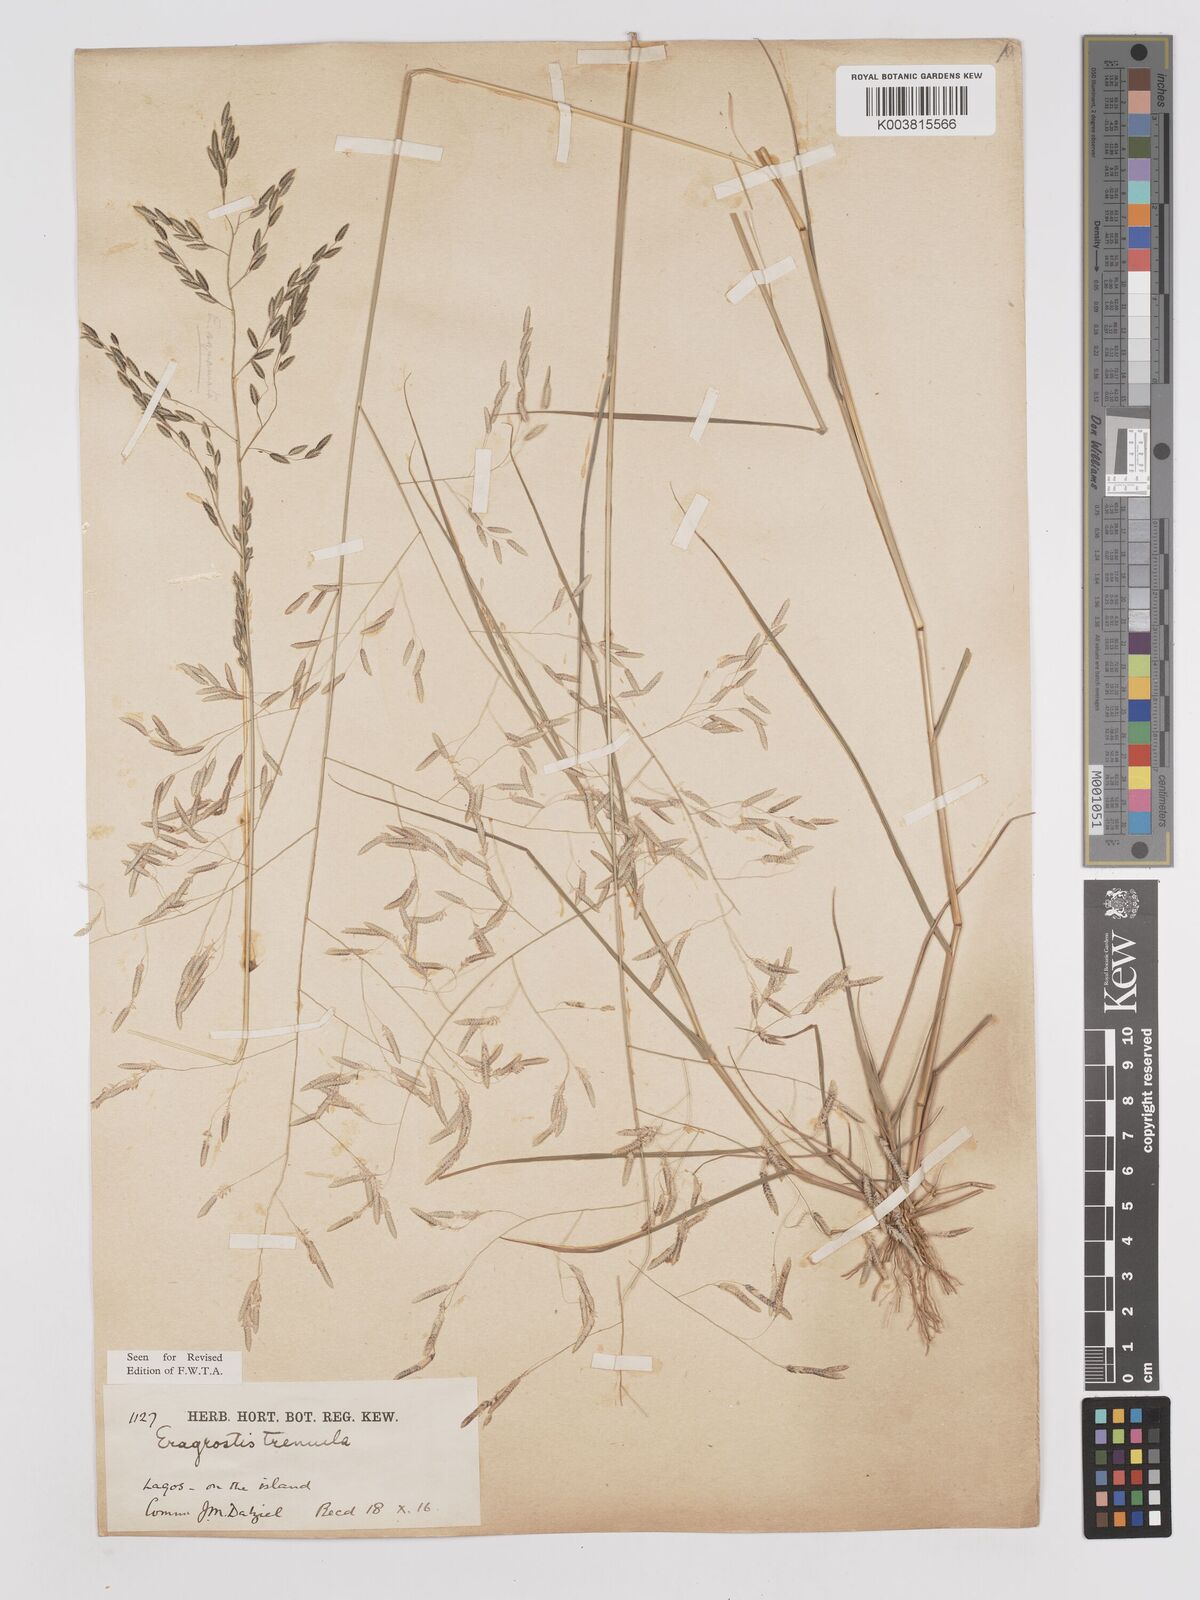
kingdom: Plantae
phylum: Tracheophyta
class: Liliopsida
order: Poales
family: Poaceae
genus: Eragrostis
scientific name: Eragrostis tremula
